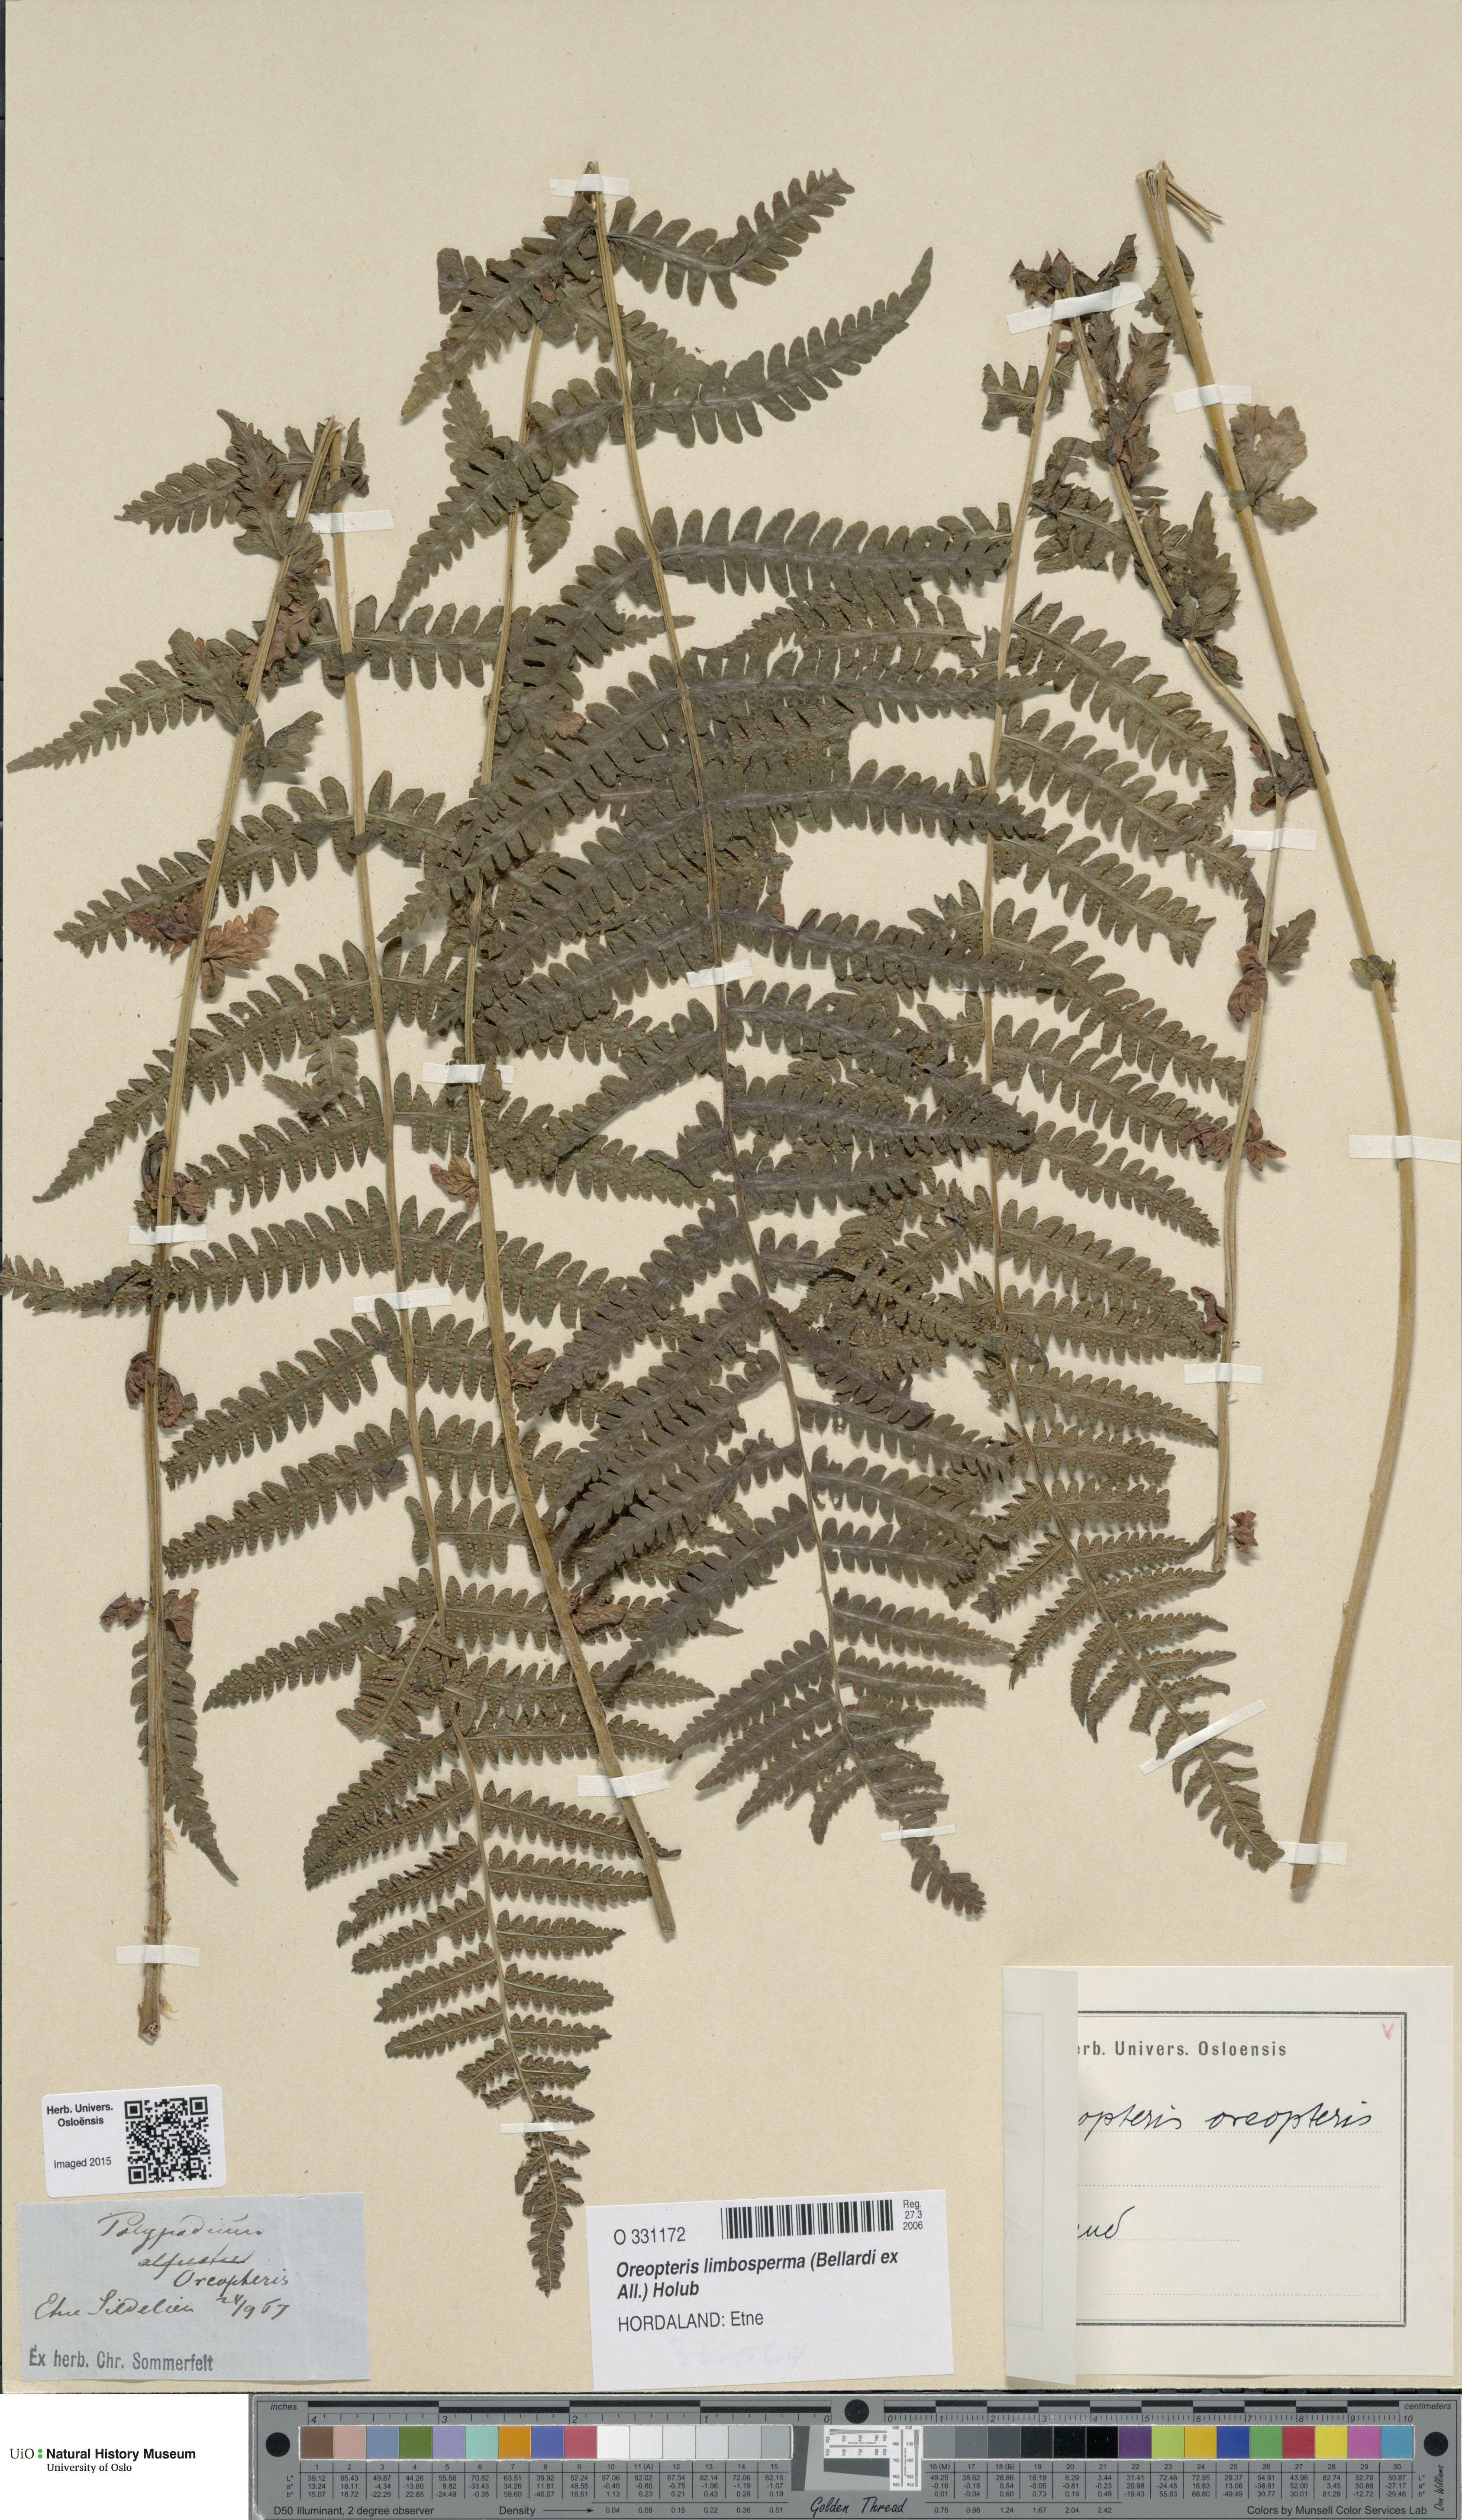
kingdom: Plantae
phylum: Tracheophyta
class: Polypodiopsida
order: Polypodiales
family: Thelypteridaceae
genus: Oreopteris
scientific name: Oreopteris limbosperma
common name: Lemon-scented fern
